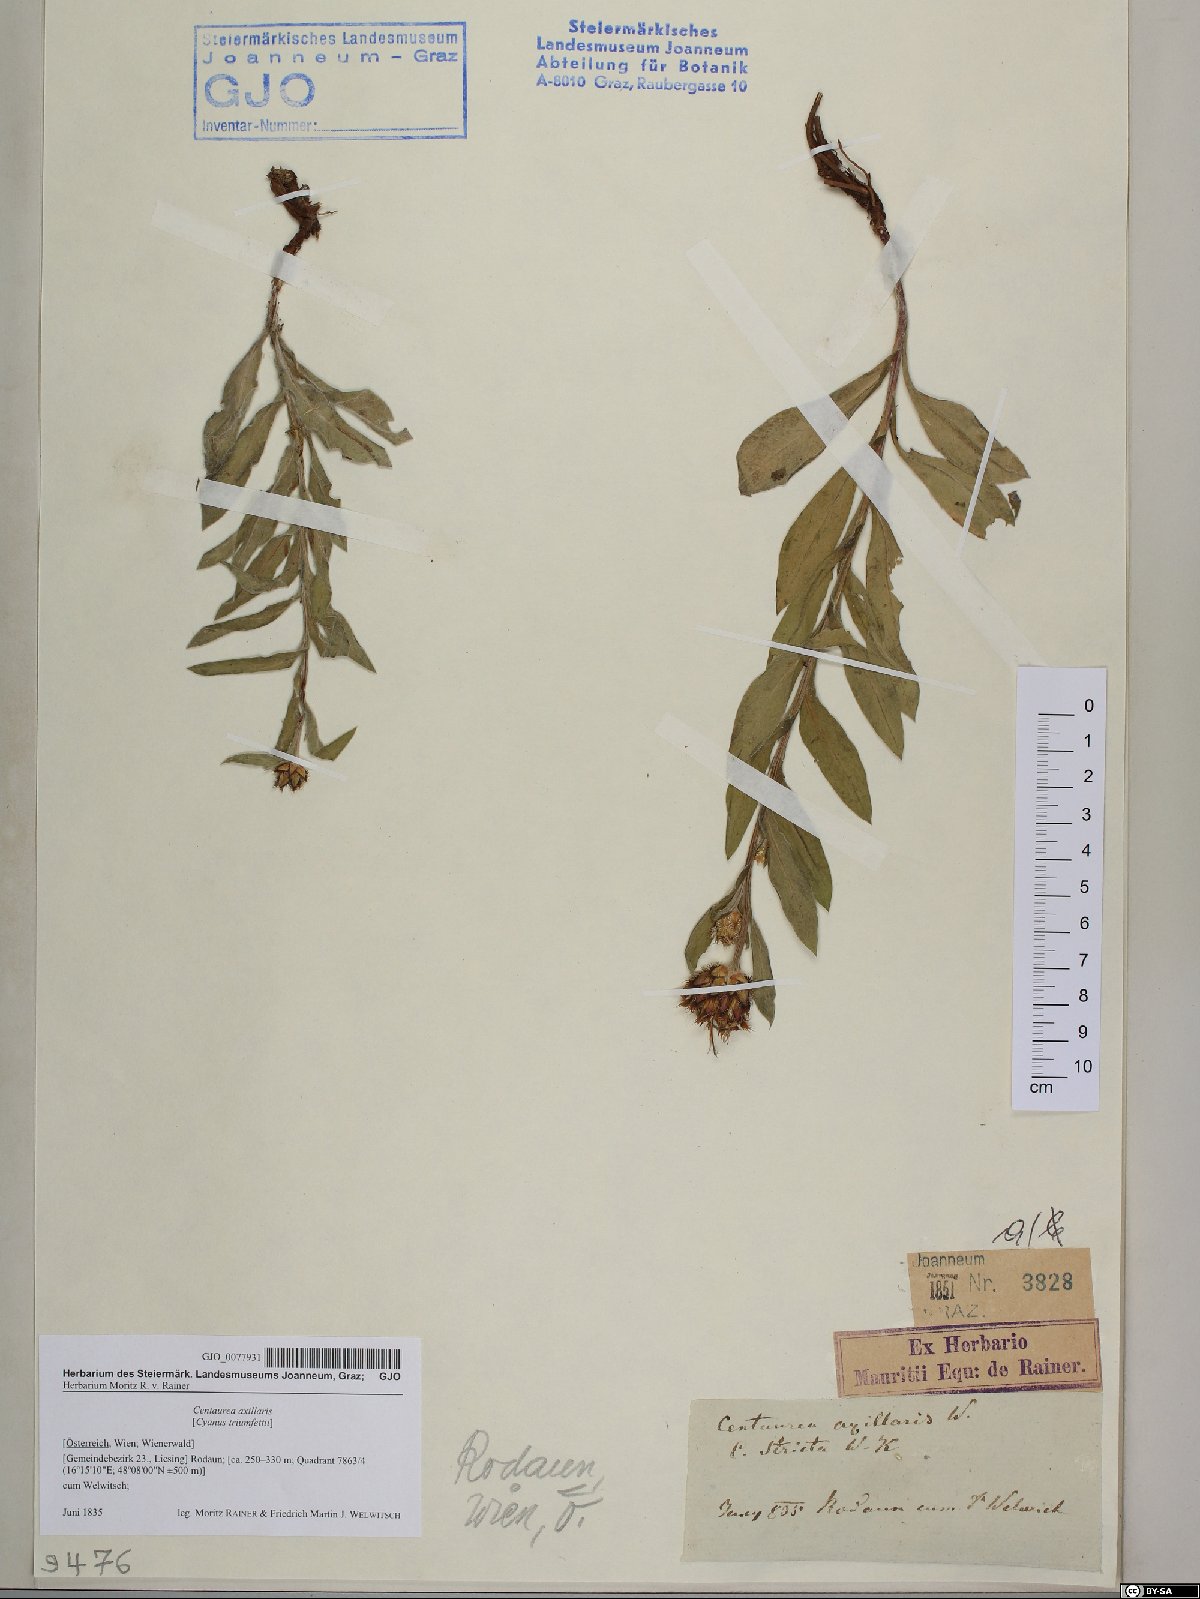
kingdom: Plantae
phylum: Tracheophyta
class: Magnoliopsida
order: Asterales
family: Asteraceae
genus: Centaurea
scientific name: Centaurea triumfettii
